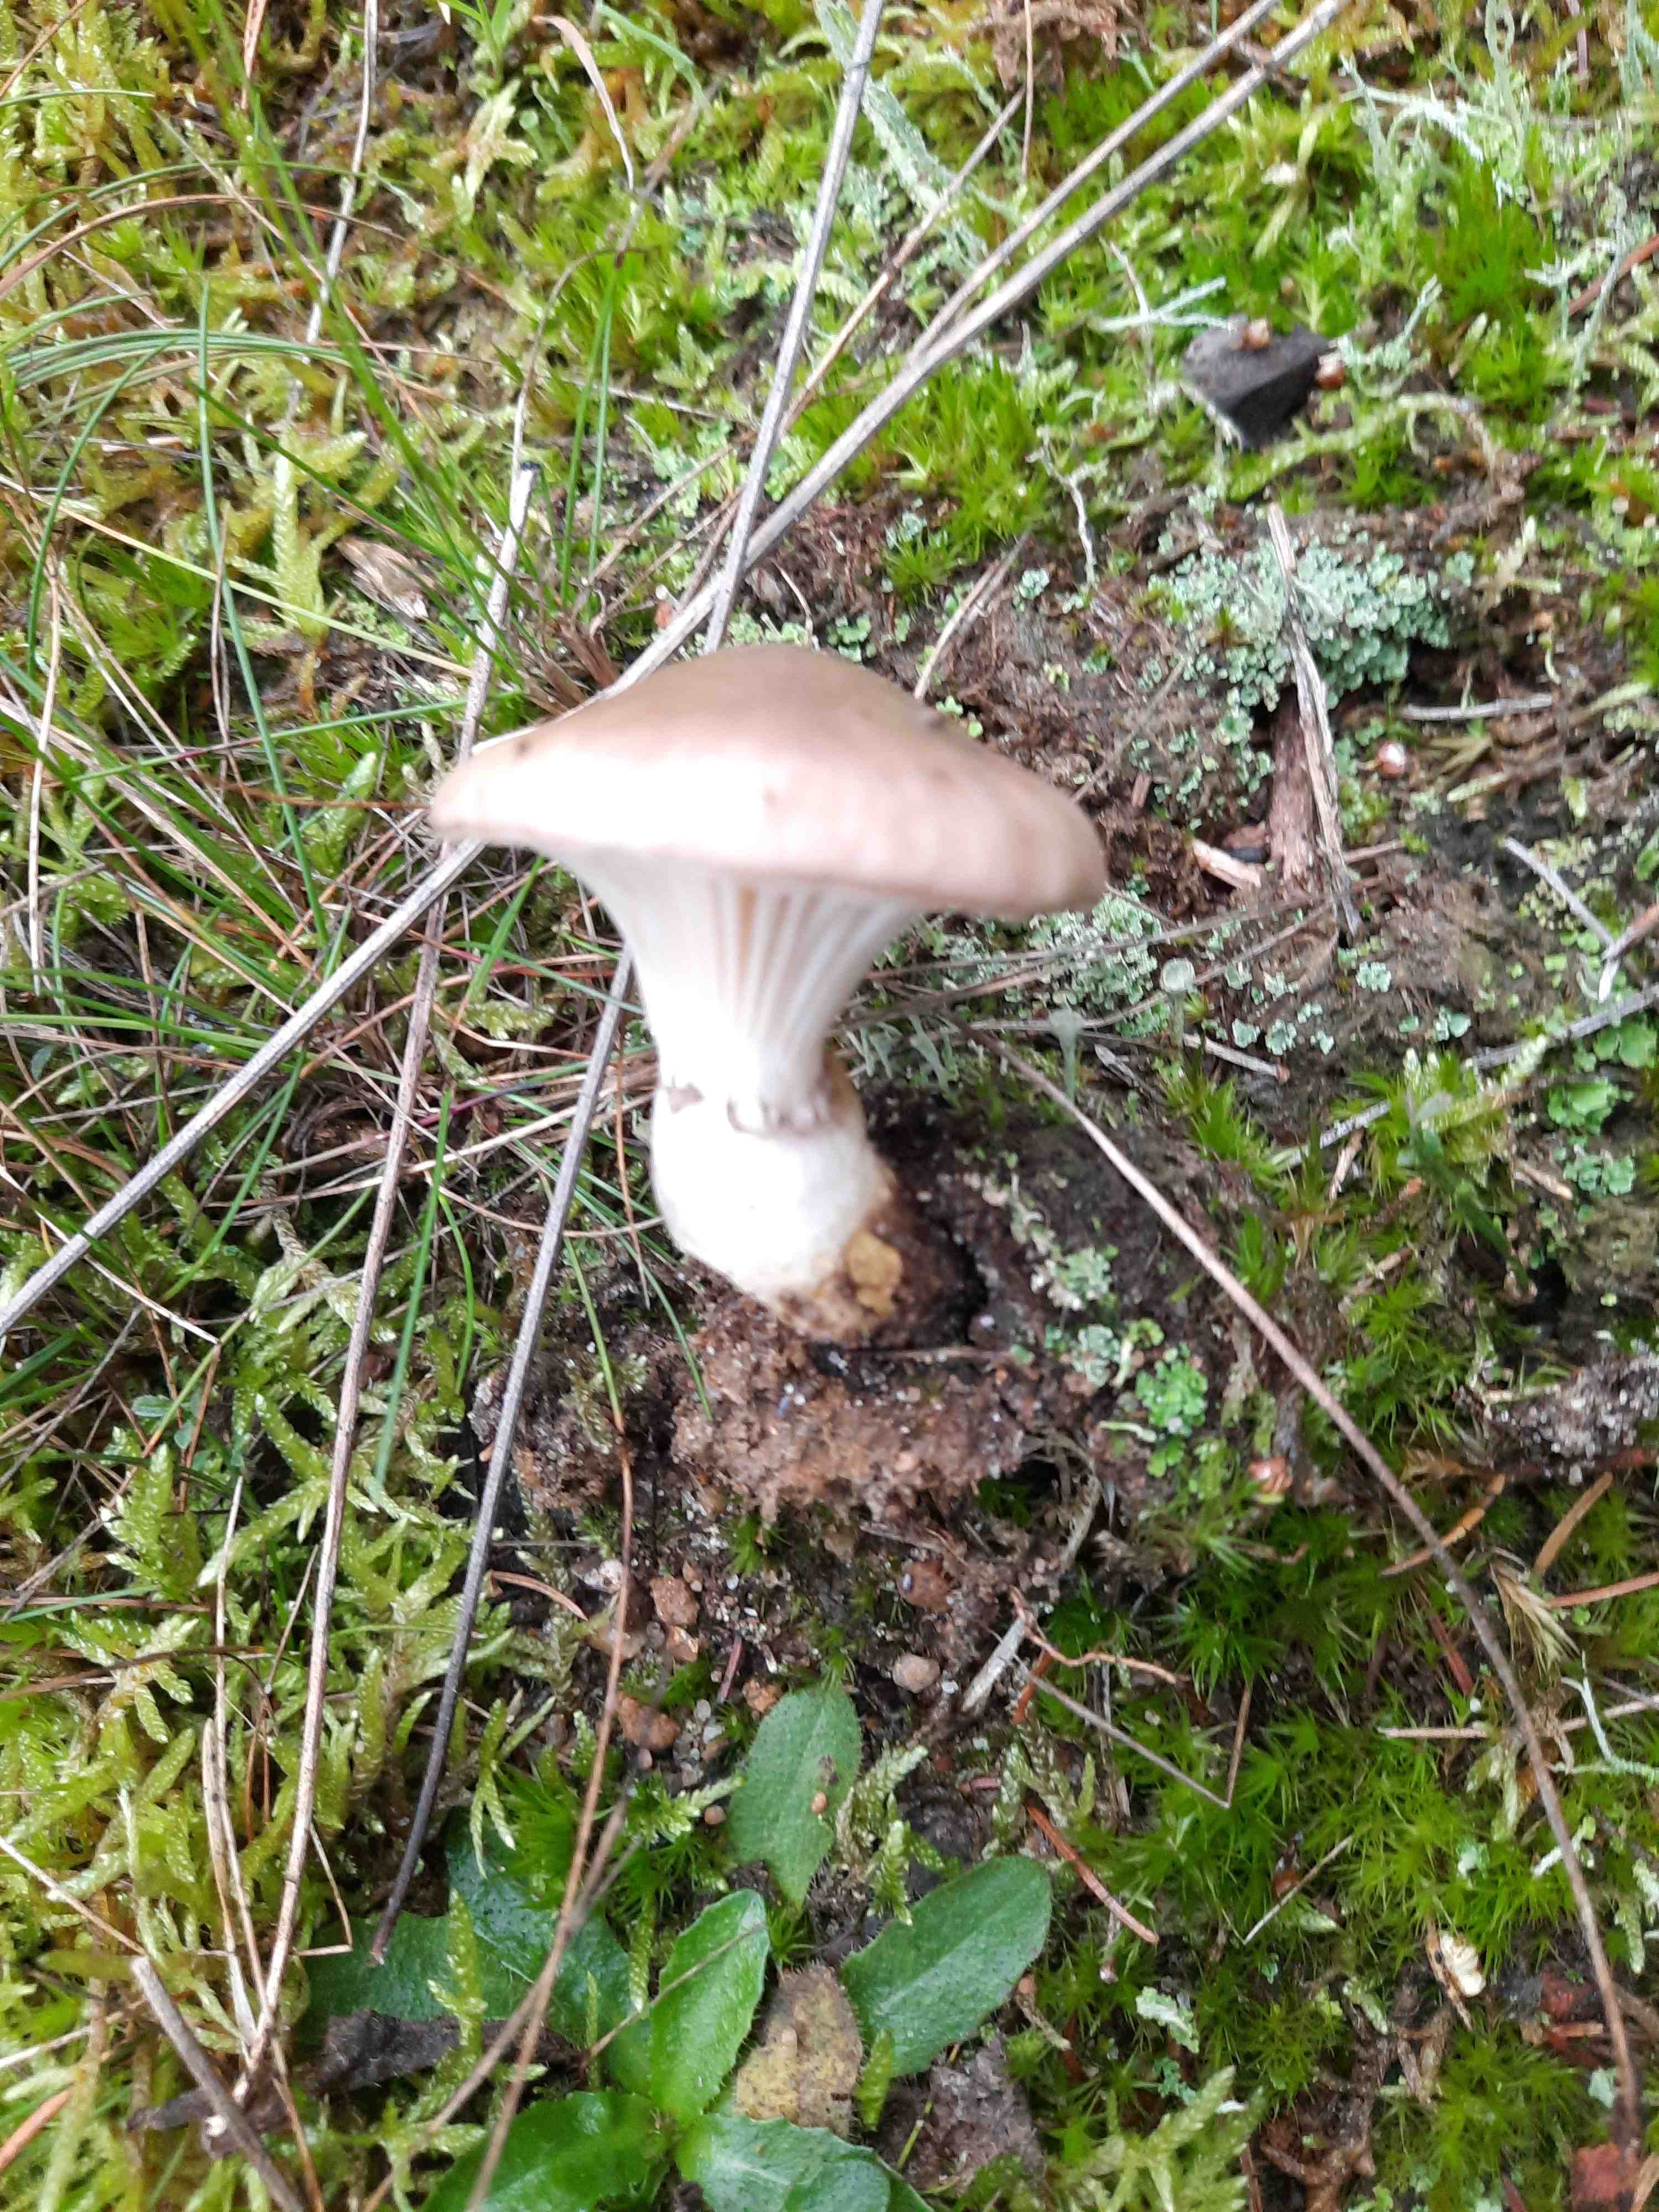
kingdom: Fungi
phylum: Basidiomycota
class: Agaricomycetes
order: Boletales
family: Gomphidiaceae
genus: Gomphidius
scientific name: Gomphidius glutinosus
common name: grå slimslør
